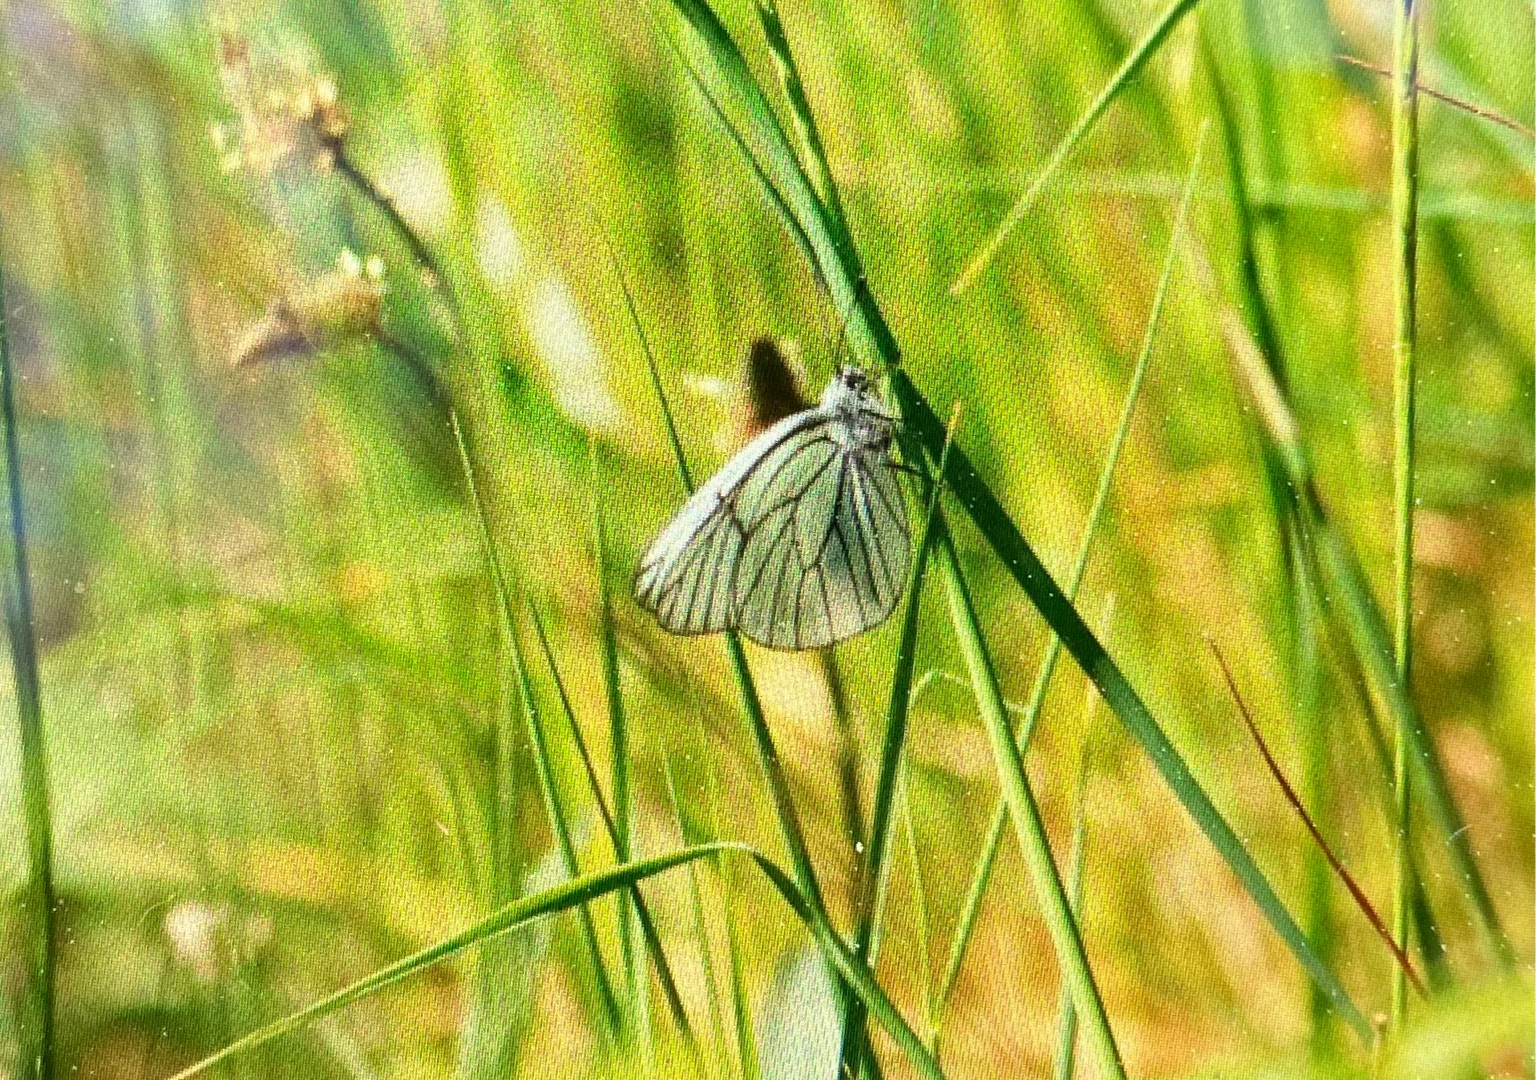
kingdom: Animalia
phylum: Arthropoda
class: Insecta
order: Lepidoptera
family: Pieridae
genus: Aporia
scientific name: Aporia crataegi
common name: Sortåret hvidvinge
